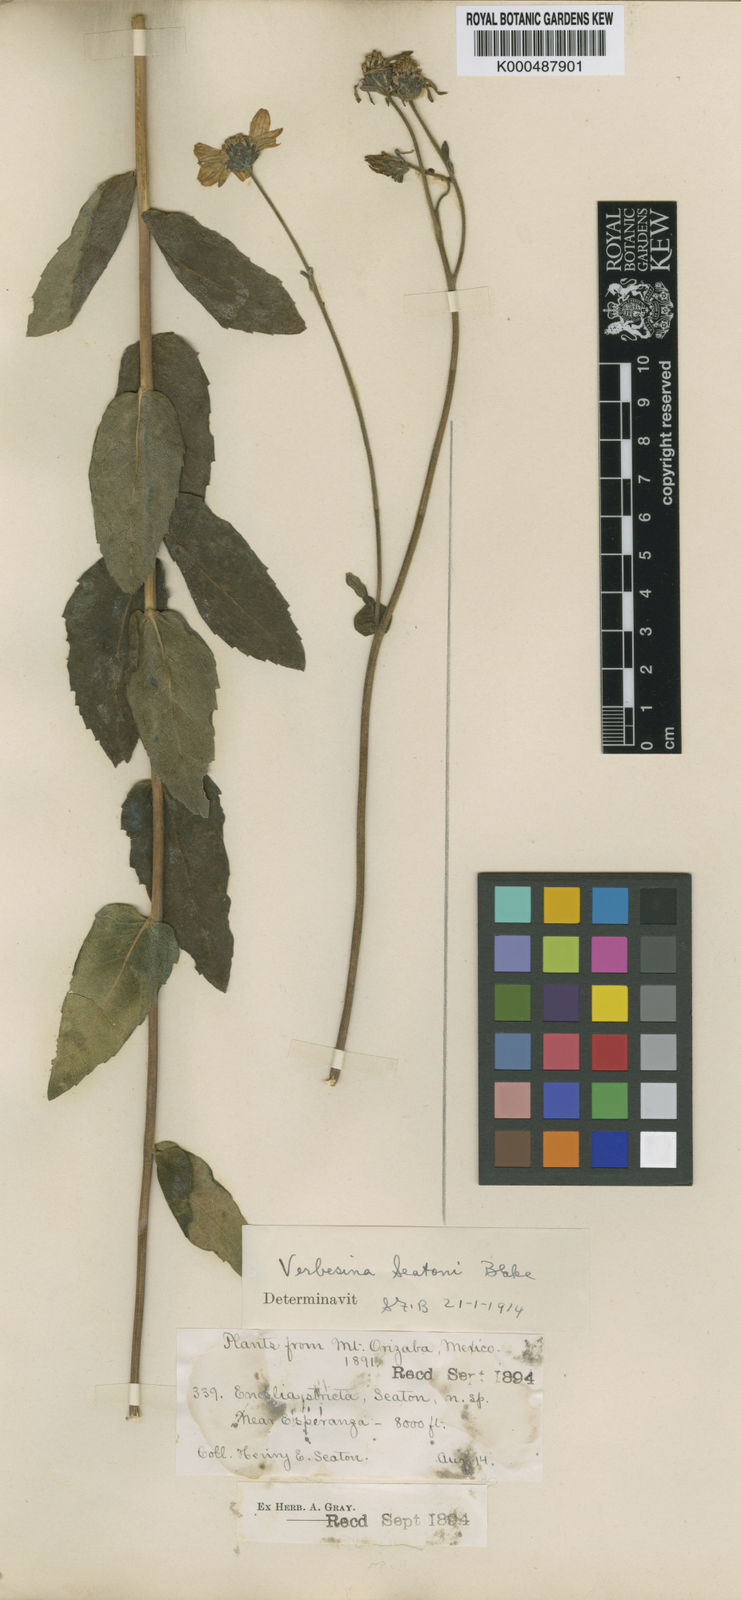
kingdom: Plantae
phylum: Tracheophyta
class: Magnoliopsida
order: Asterales
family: Asteraceae
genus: Verbesina
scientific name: Verbesina seatonii
